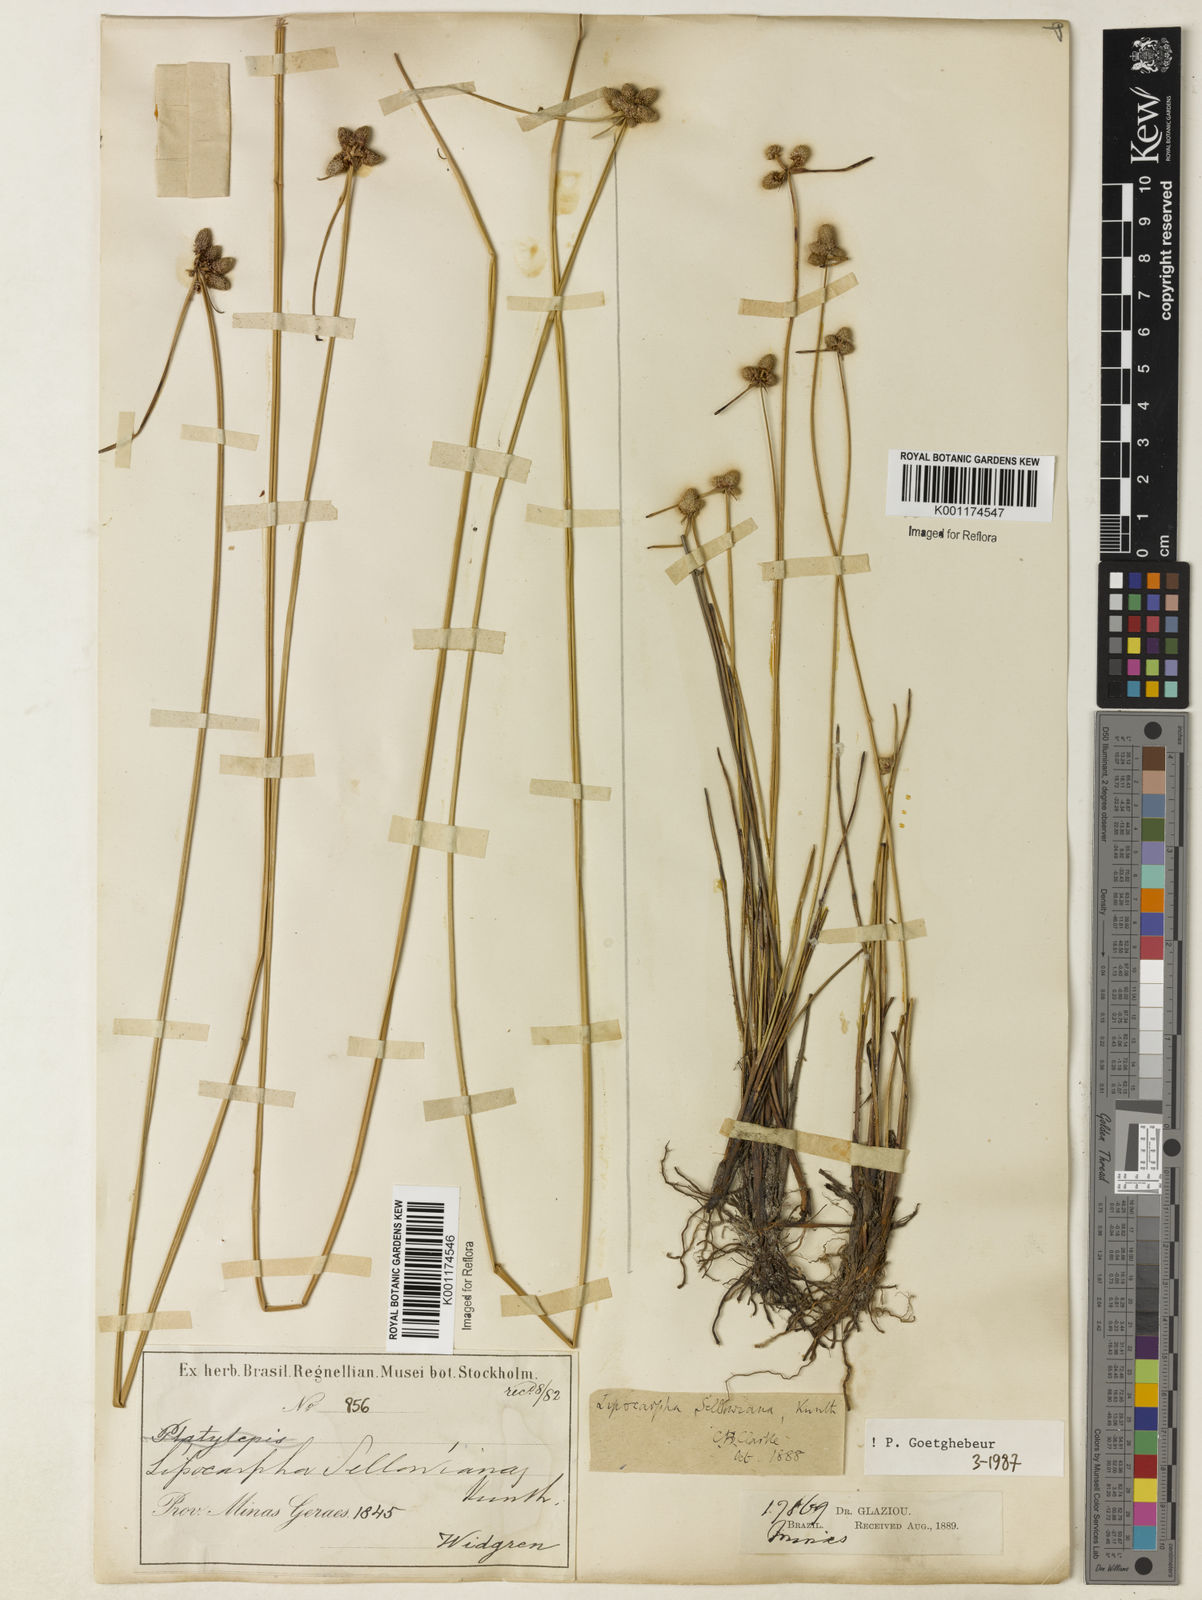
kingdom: Plantae
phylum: Tracheophyta
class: Liliopsida
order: Poales
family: Cyperaceae
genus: Cyperus
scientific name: Cyperus lanceolatus
